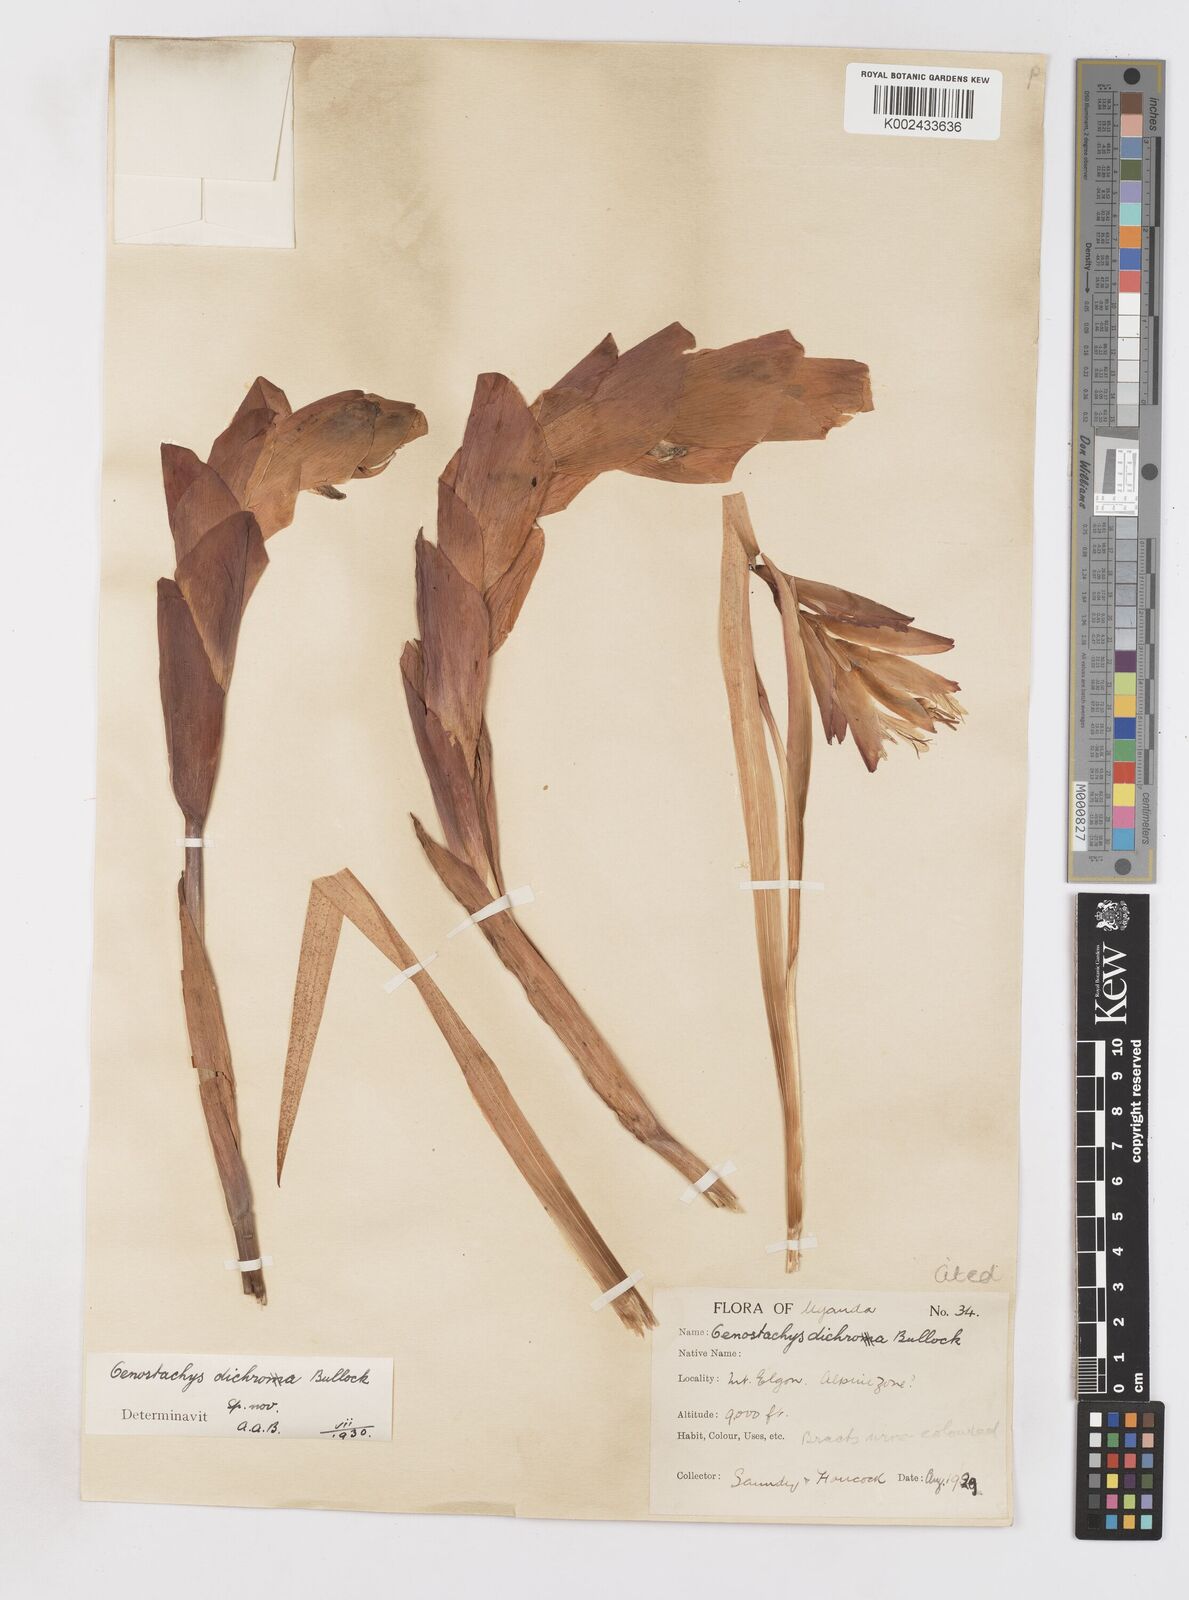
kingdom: Plantae
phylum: Tracheophyta
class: Liliopsida
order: Asparagales
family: Iridaceae
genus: Gladiolus
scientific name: Gladiolus dichrous
